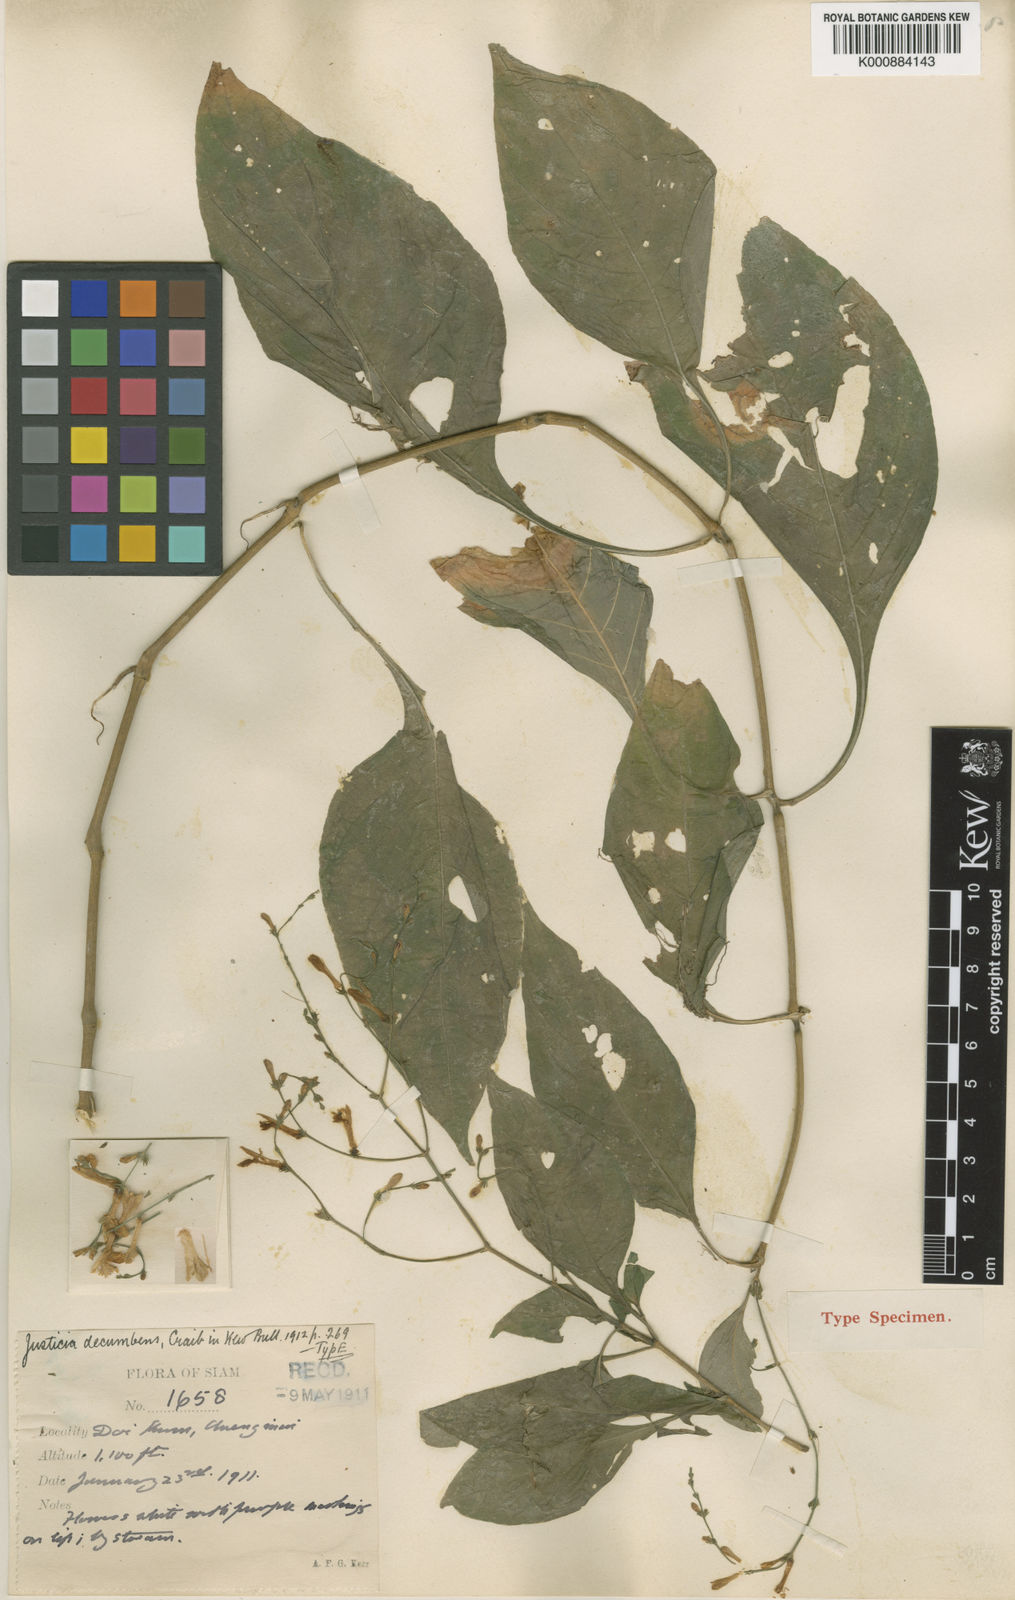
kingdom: Plantae
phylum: Tracheophyta
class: Magnoliopsida
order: Lamiales
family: Acanthaceae
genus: Justicia
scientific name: Justicia decumbens
